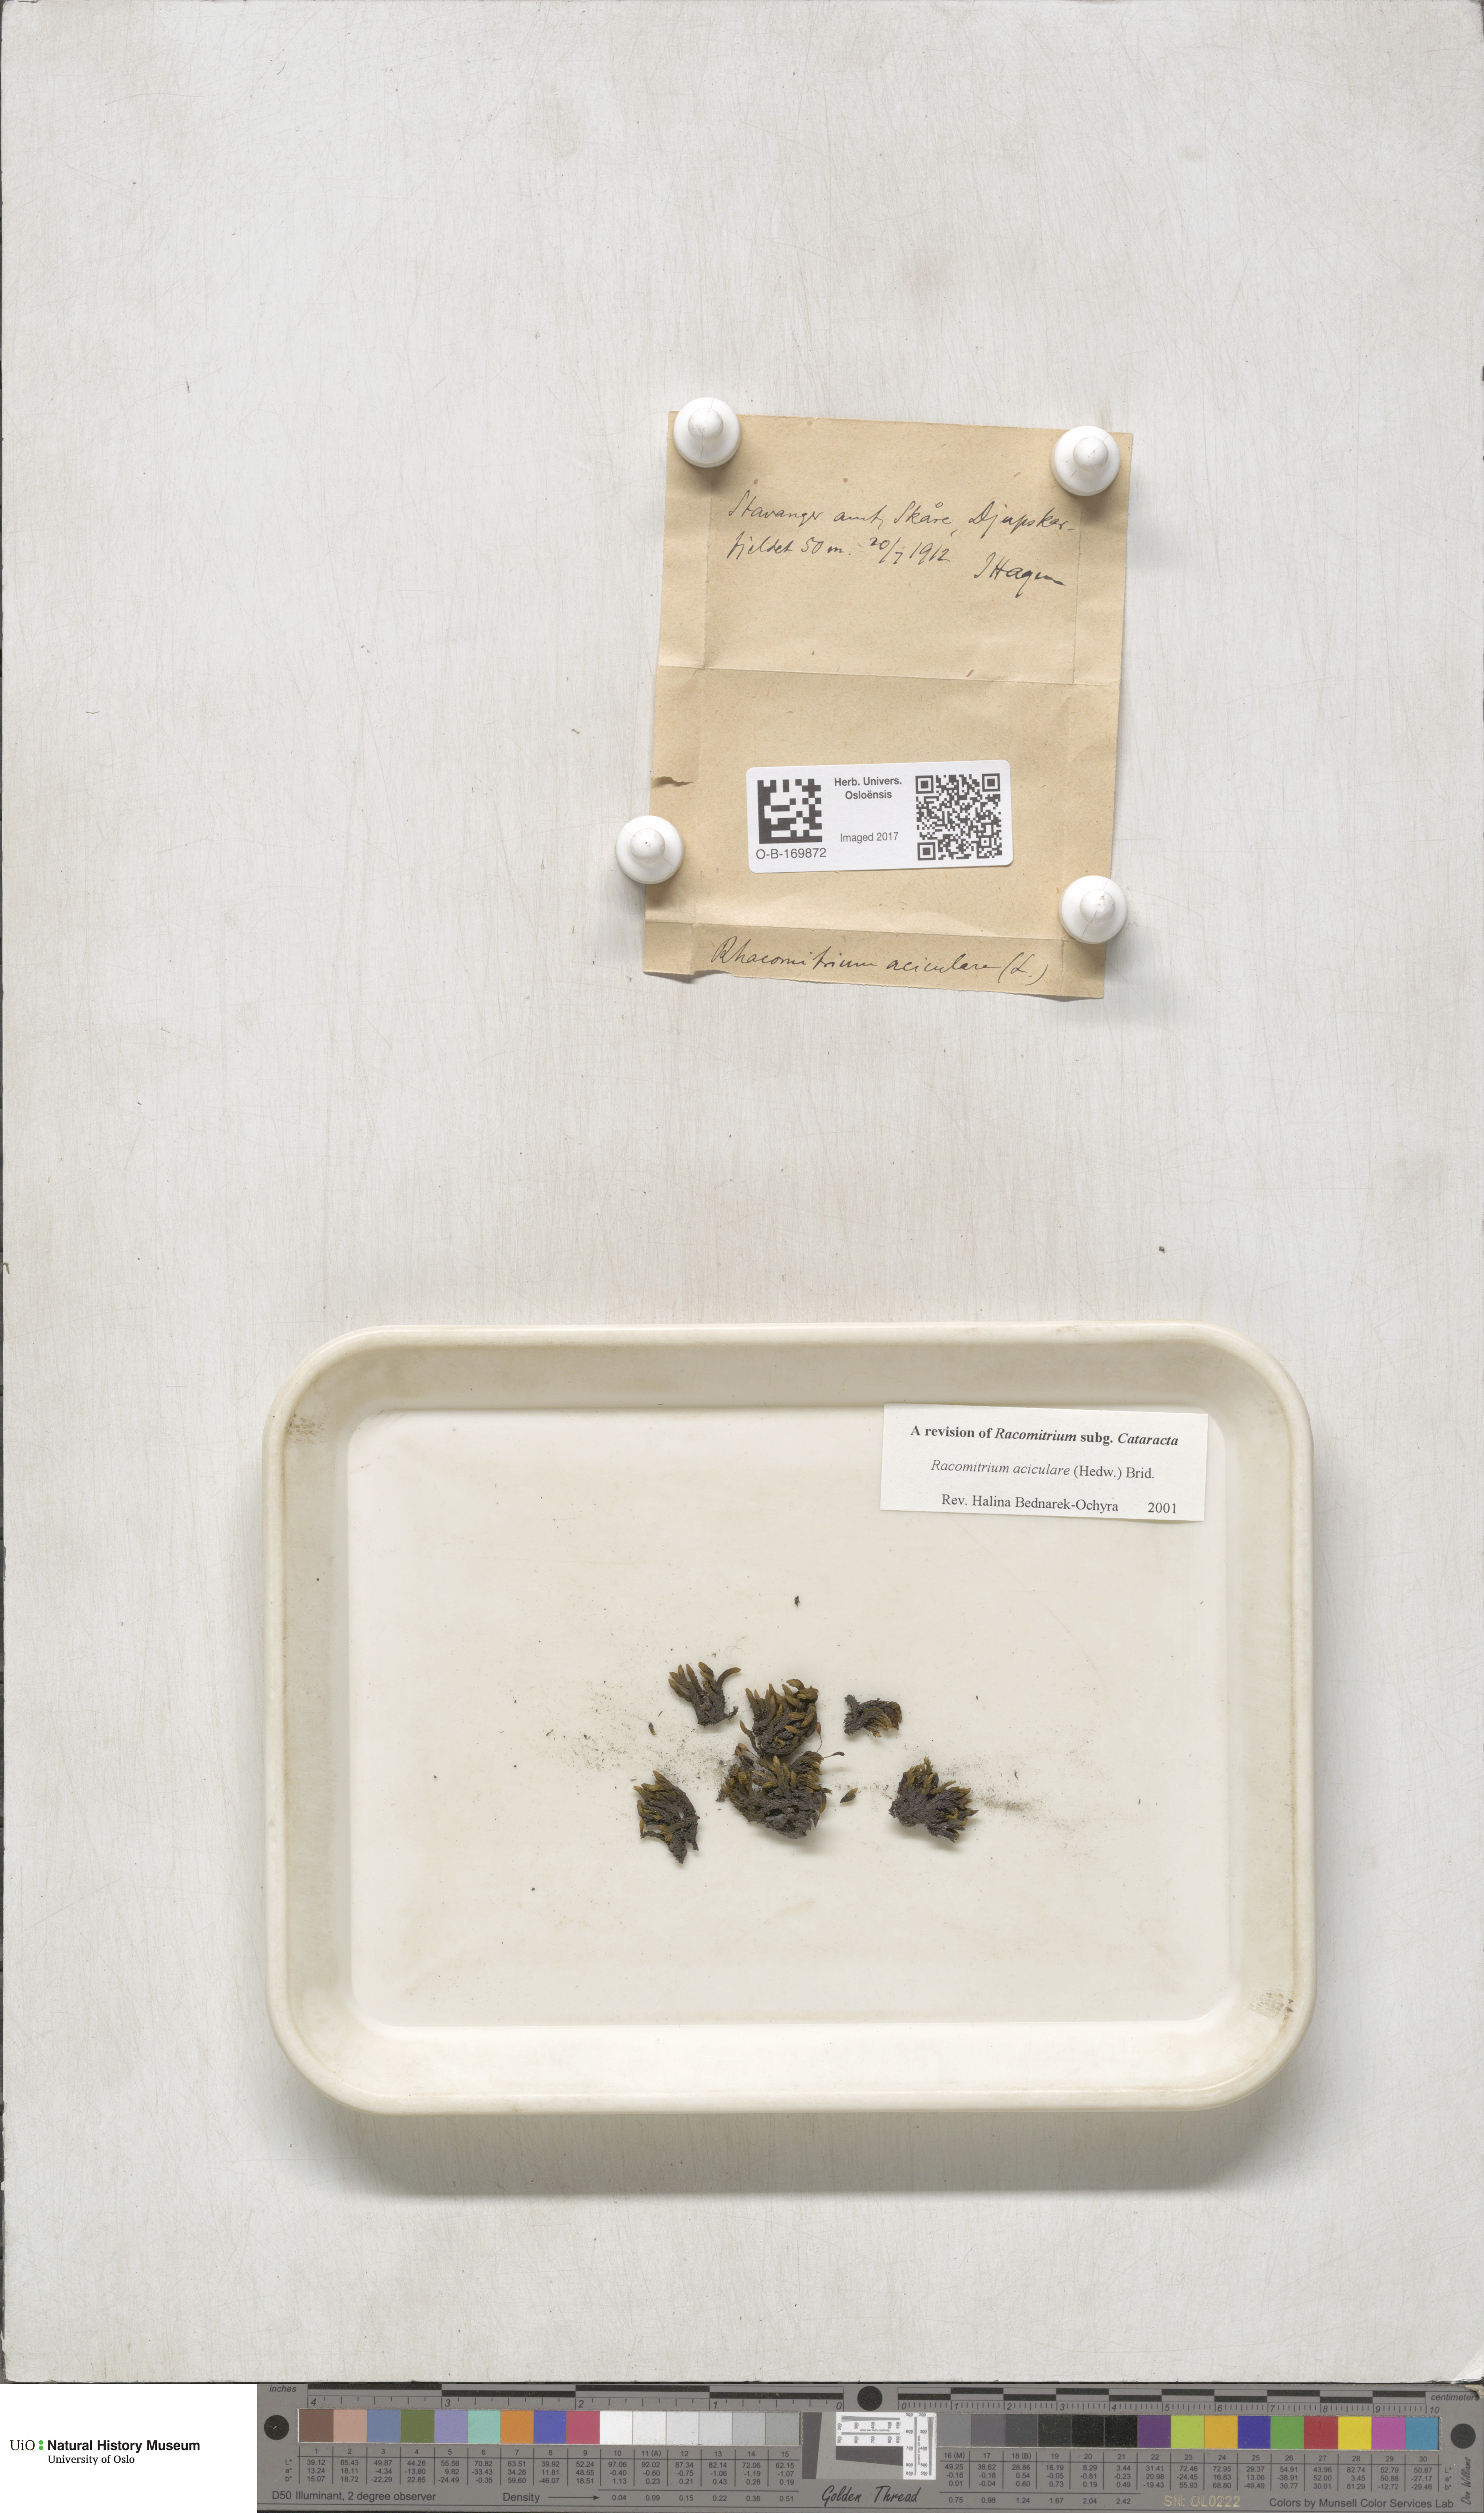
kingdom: Plantae
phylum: Bryophyta
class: Bryopsida
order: Grimmiales
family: Grimmiaceae
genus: Codriophorus
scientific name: Codriophorus acicularis
